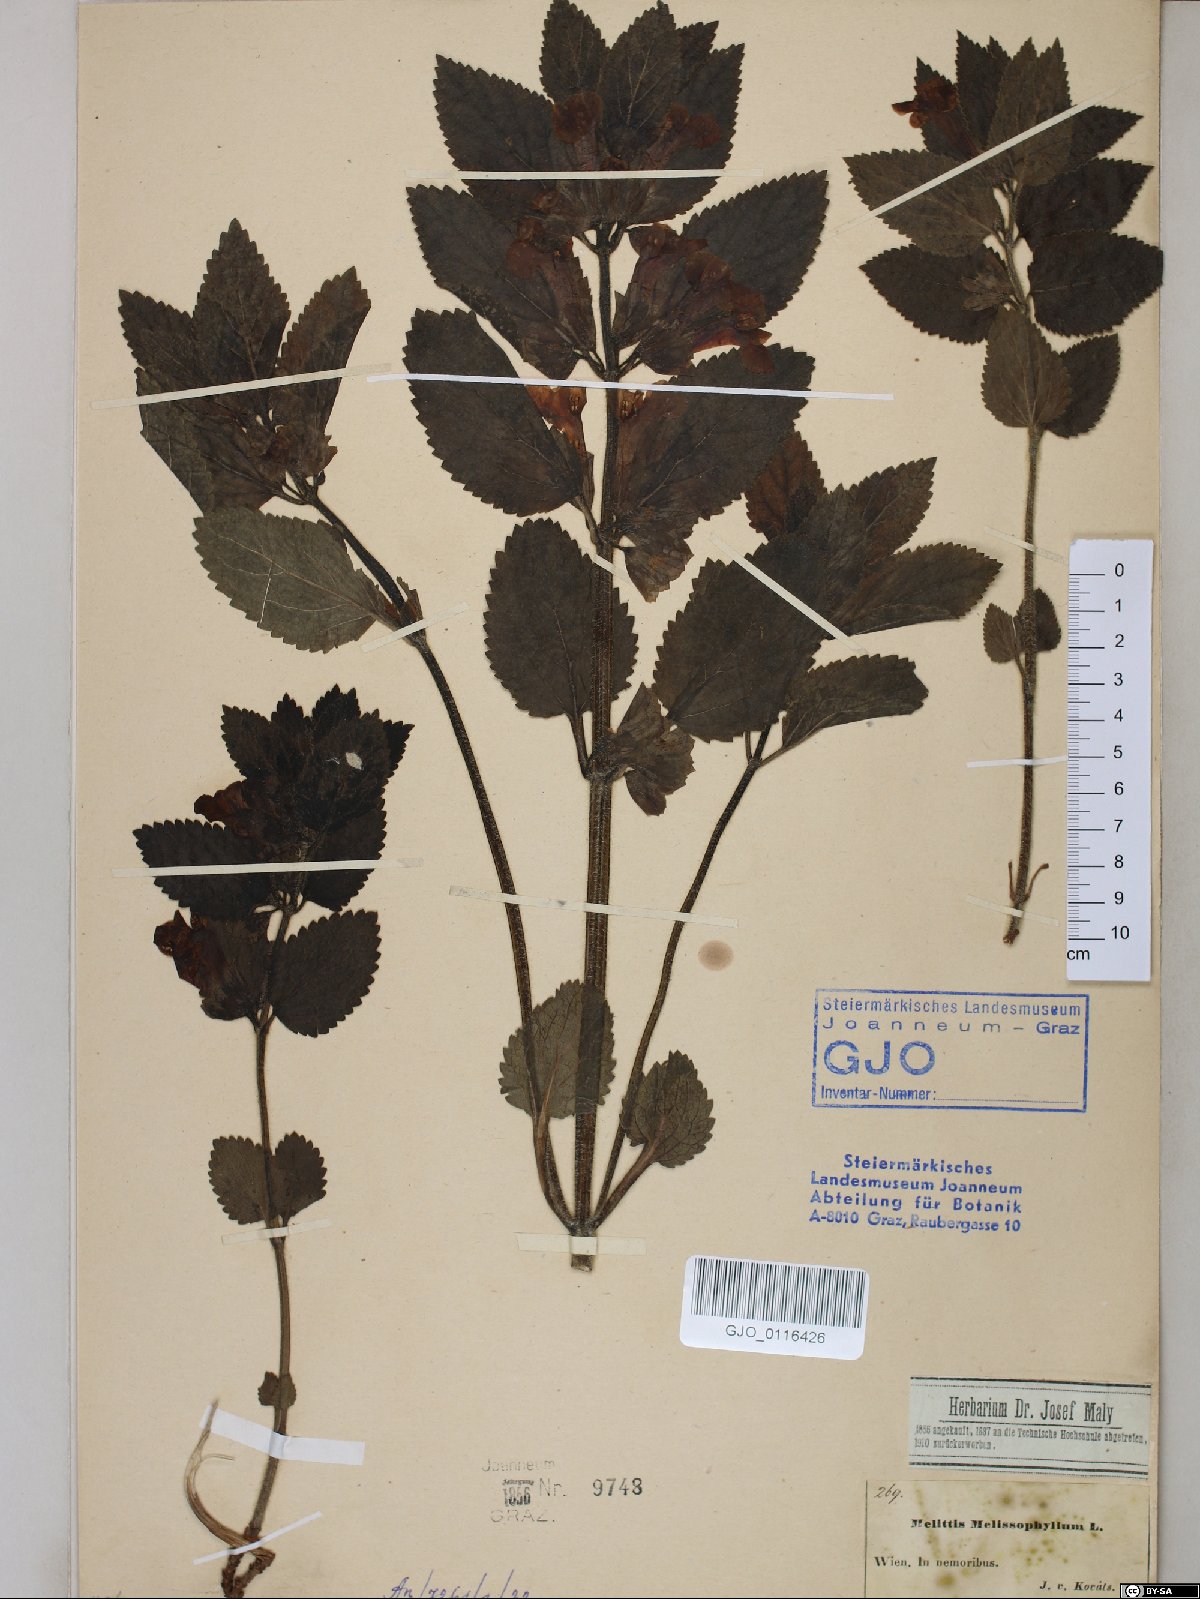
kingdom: Plantae
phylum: Tracheophyta
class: Magnoliopsida
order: Lamiales
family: Lamiaceae
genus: Melittis
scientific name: Melittis melissophyllum
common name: Bastard balm
